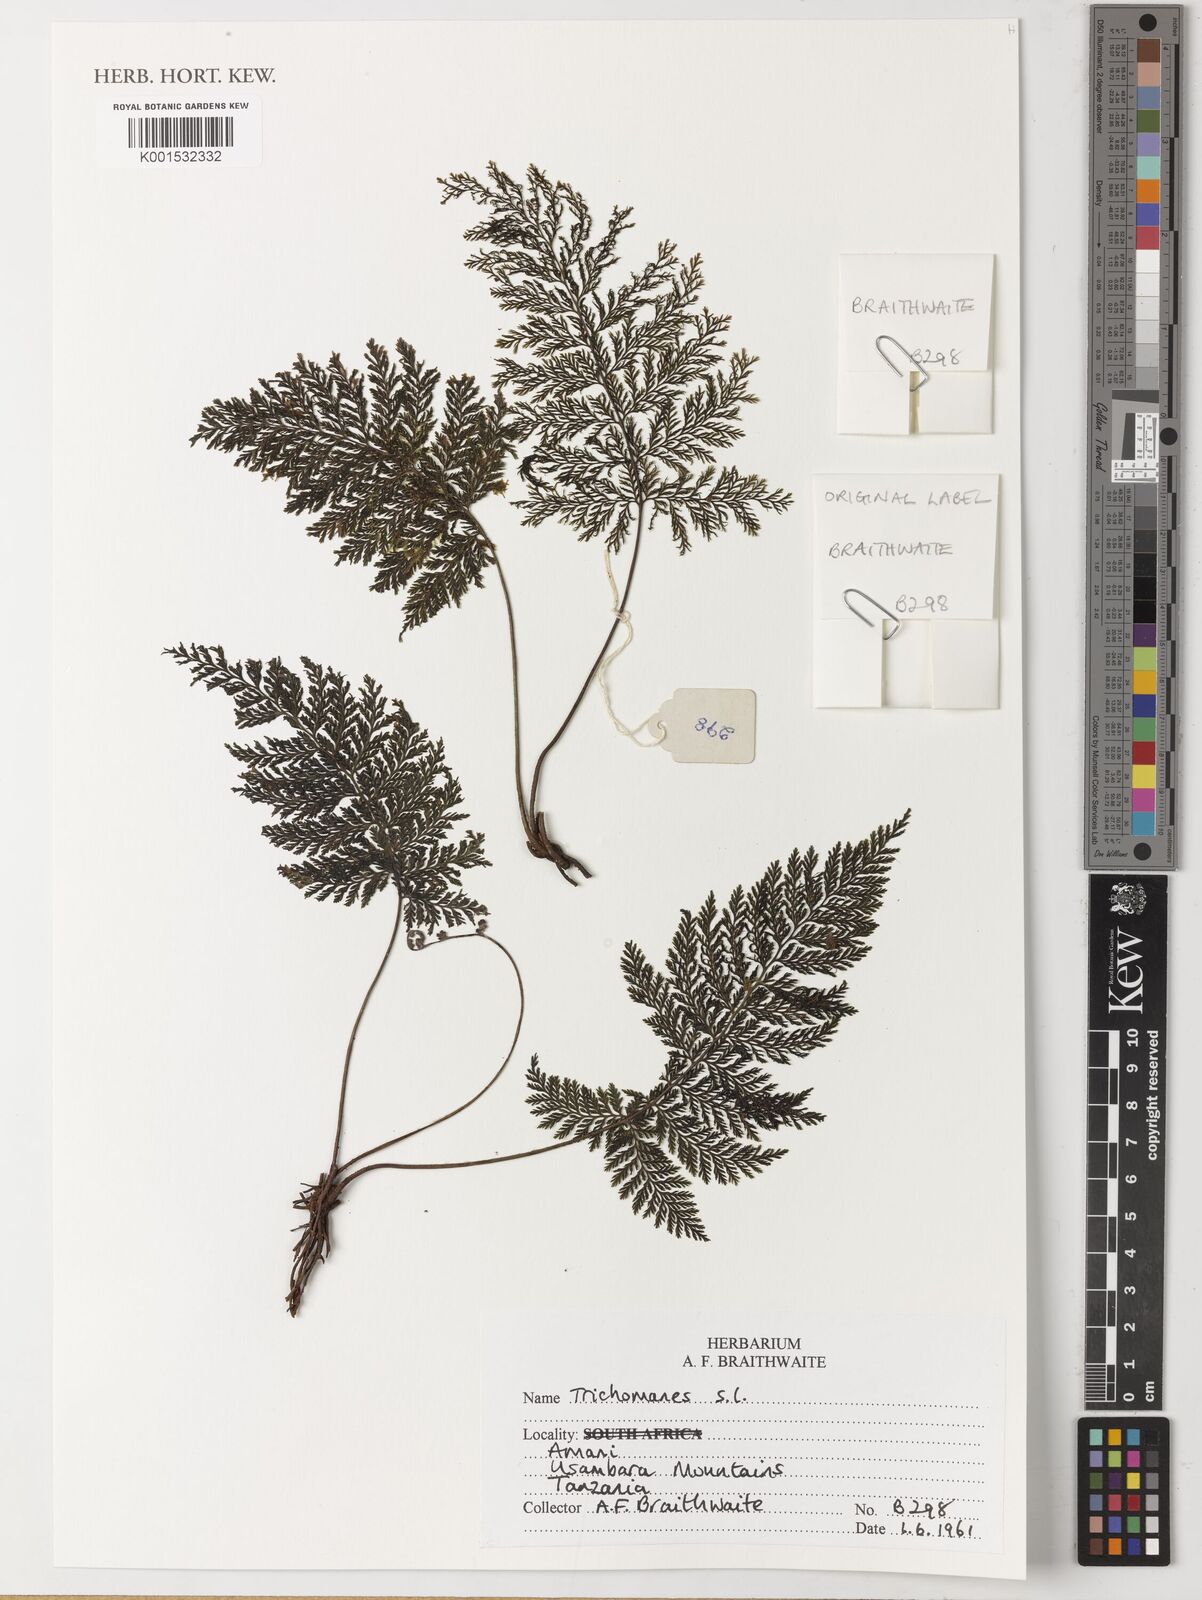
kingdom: Plantae
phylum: Tracheophyta
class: Polypodiopsida
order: Hymenophyllales
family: Hymenophyllaceae
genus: Trichomanes
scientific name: Trichomanes
